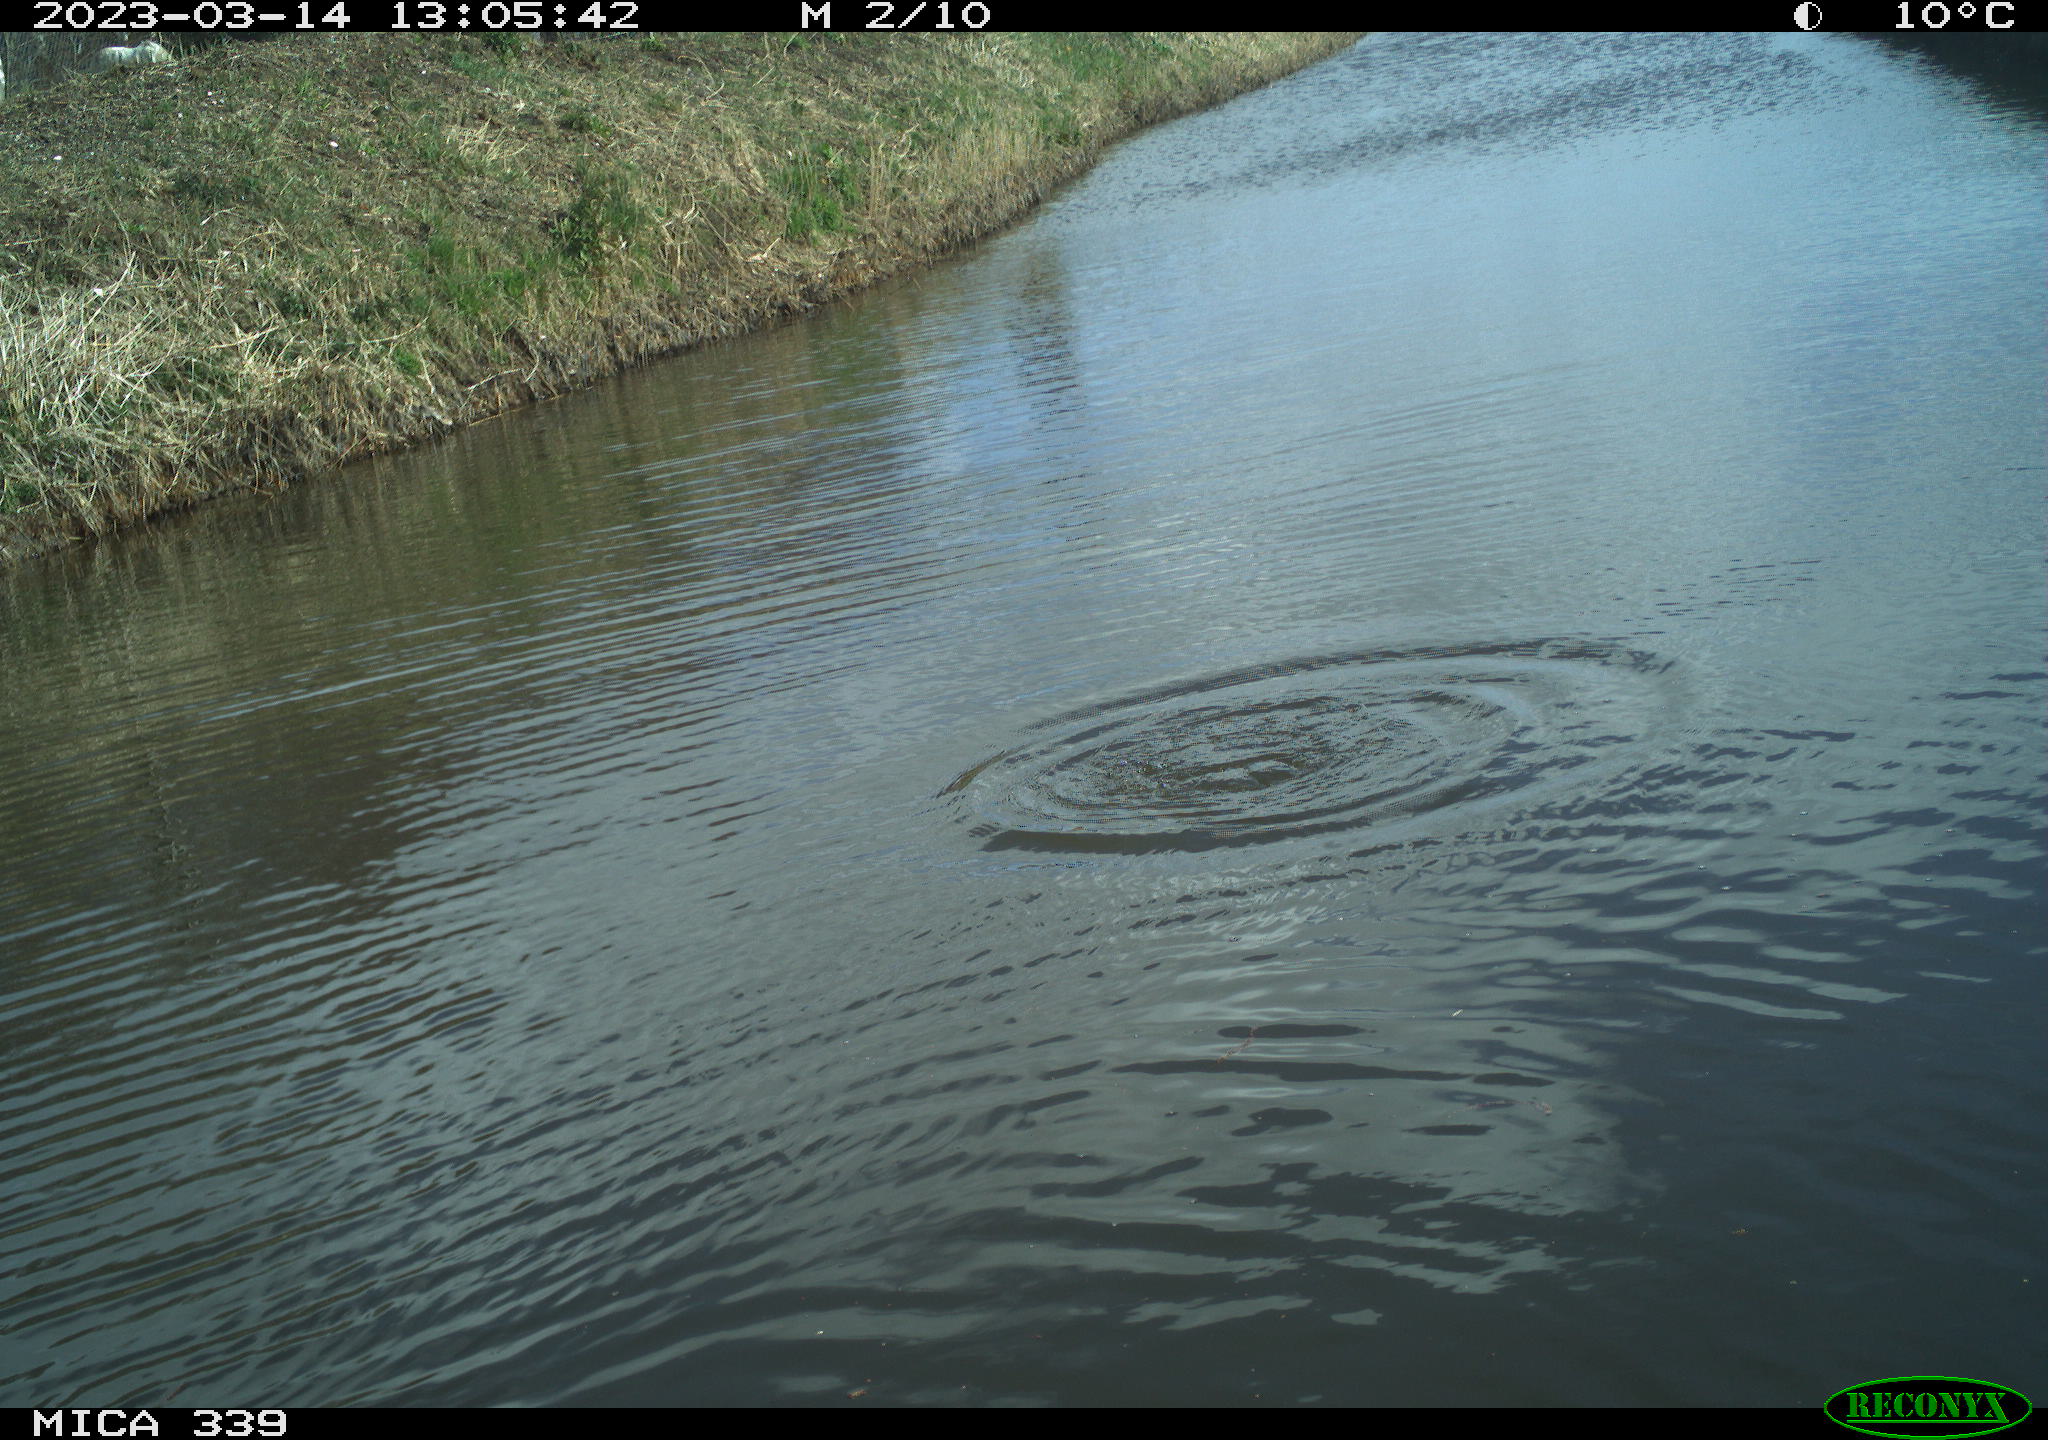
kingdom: Animalia
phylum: Chordata
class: Aves
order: Gruiformes
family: Rallidae
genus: Fulica
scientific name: Fulica atra
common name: Eurasian coot
